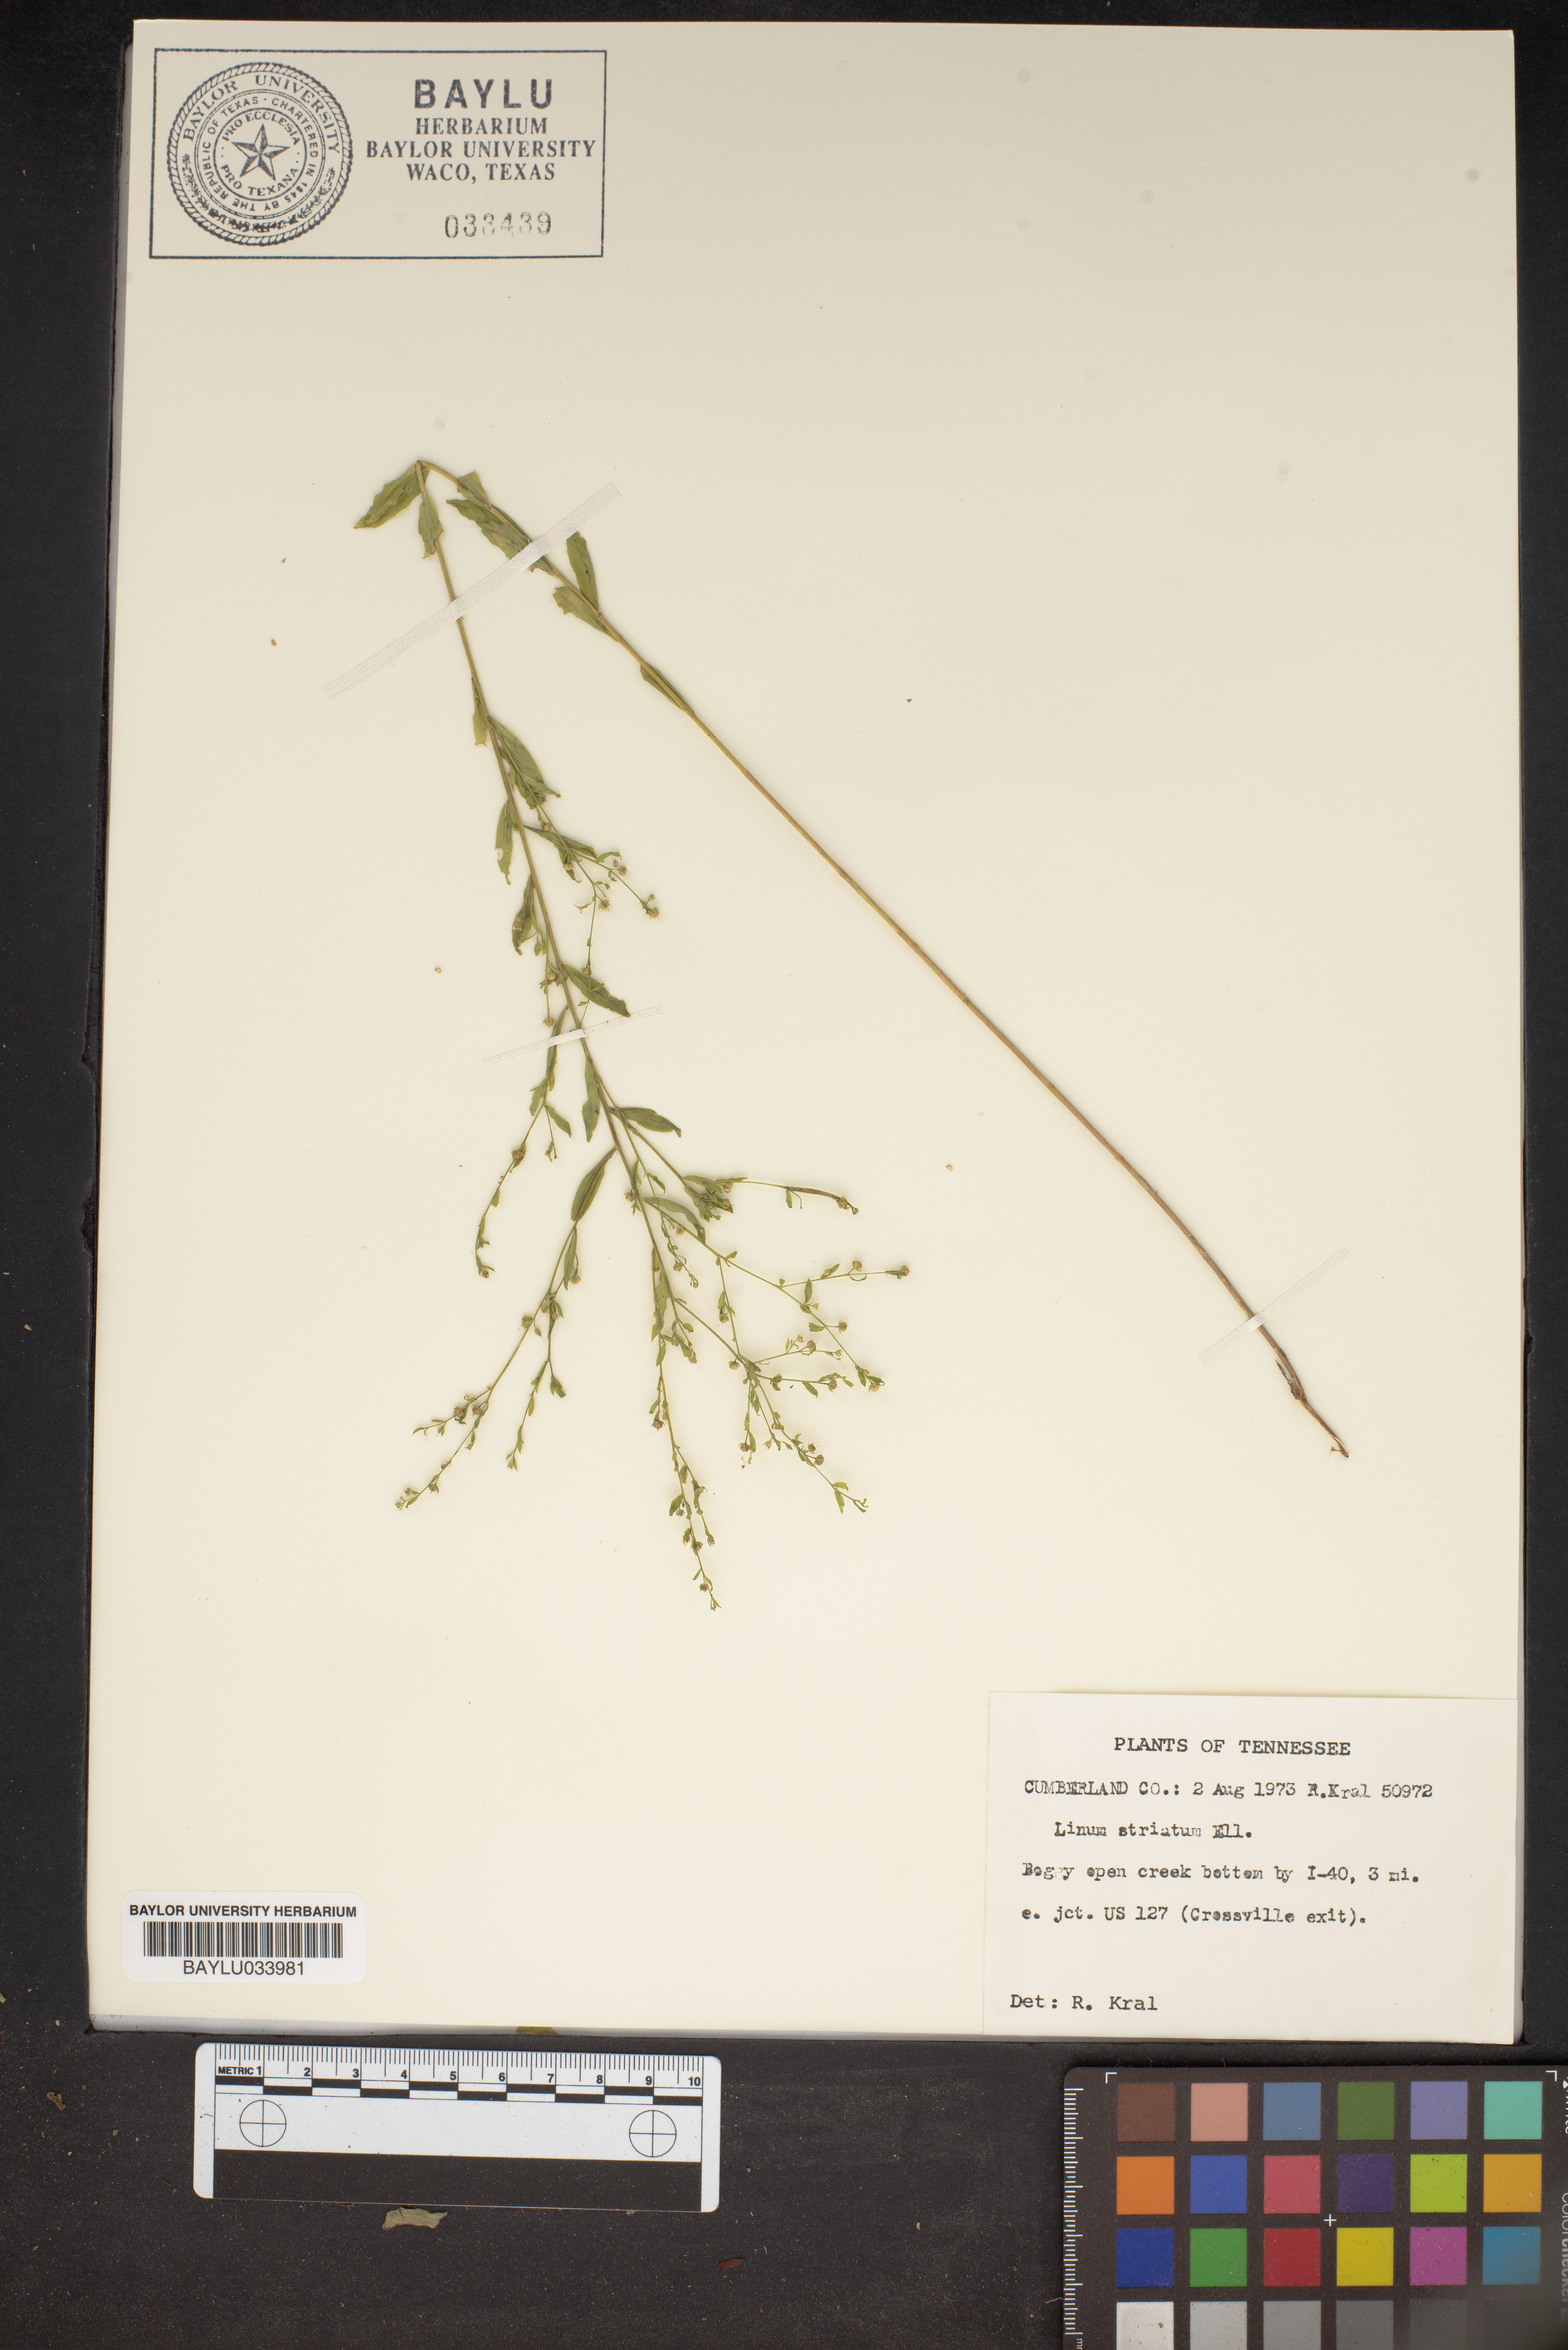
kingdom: Plantae
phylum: Tracheophyta
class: Magnoliopsida
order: Malpighiales
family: Linaceae
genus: Linum
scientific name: Linum striatum
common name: Ridged yellow flax
